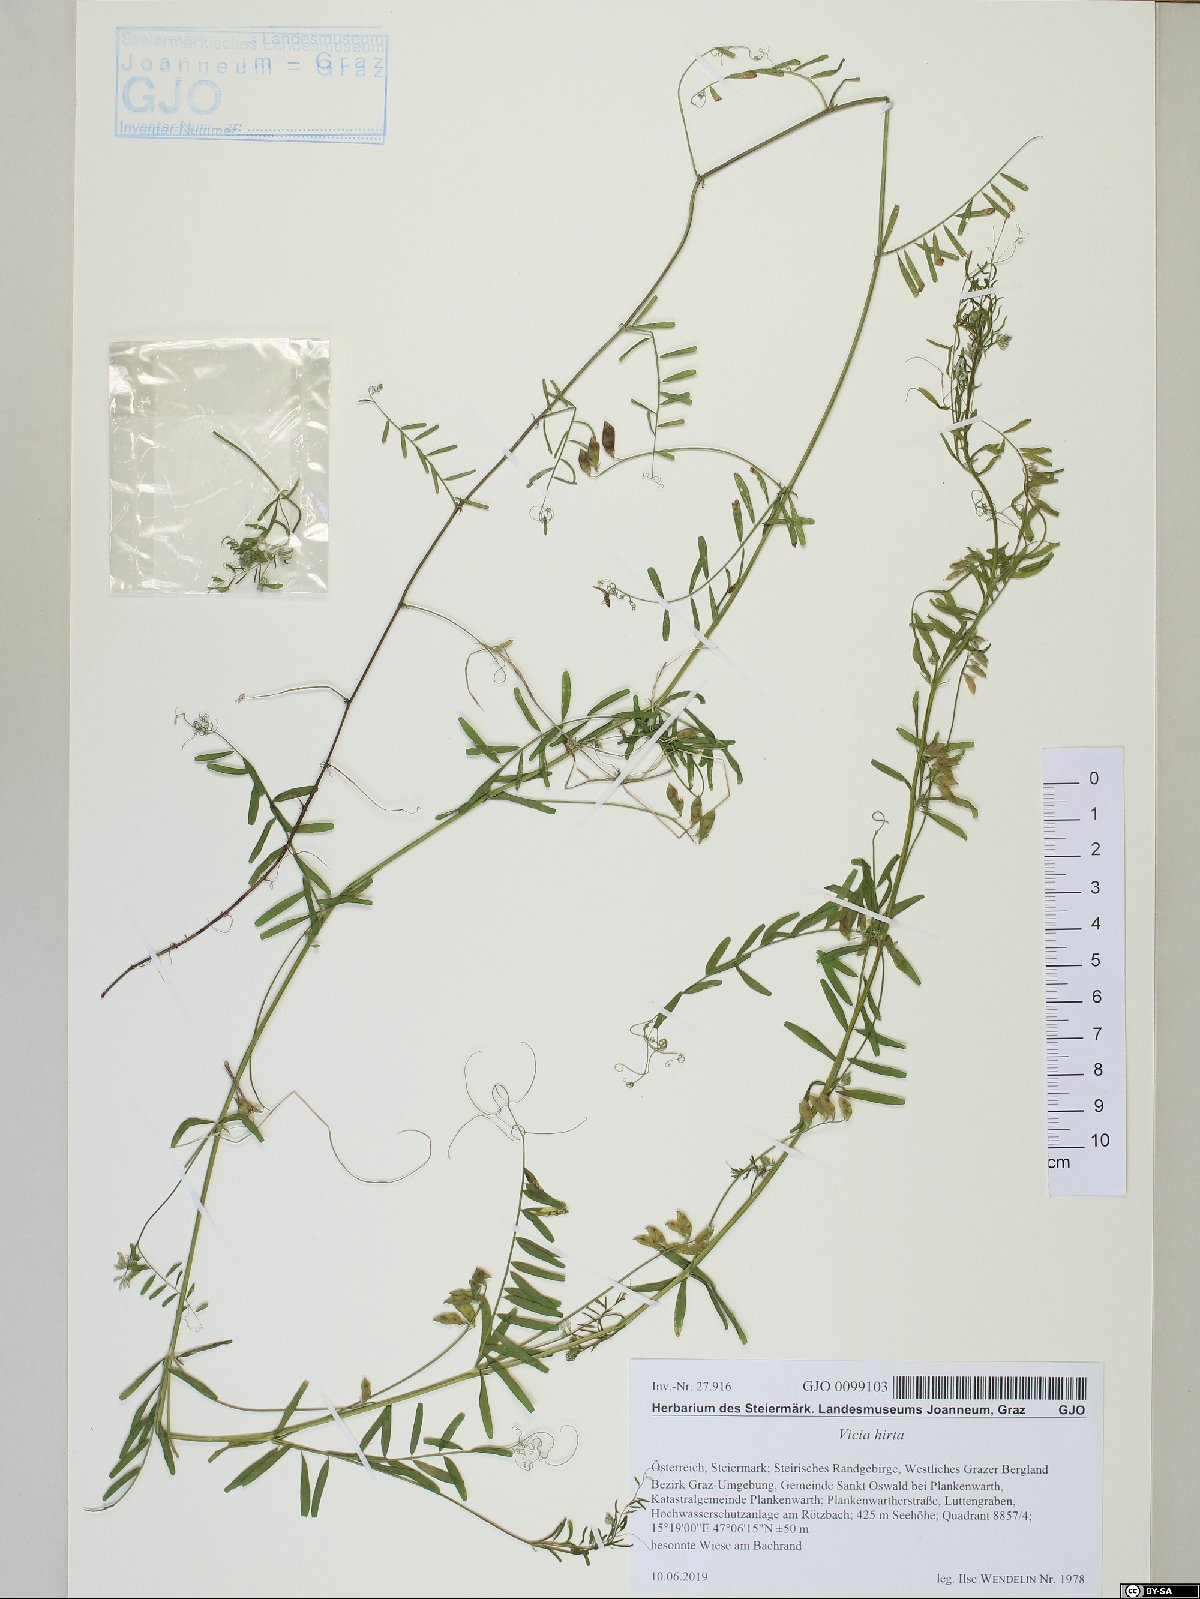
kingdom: Plantae
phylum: Tracheophyta
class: Magnoliopsida
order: Fabales
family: Fabaceae
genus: Vicia
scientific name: Vicia lutea
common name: Smooth yellow vetch
